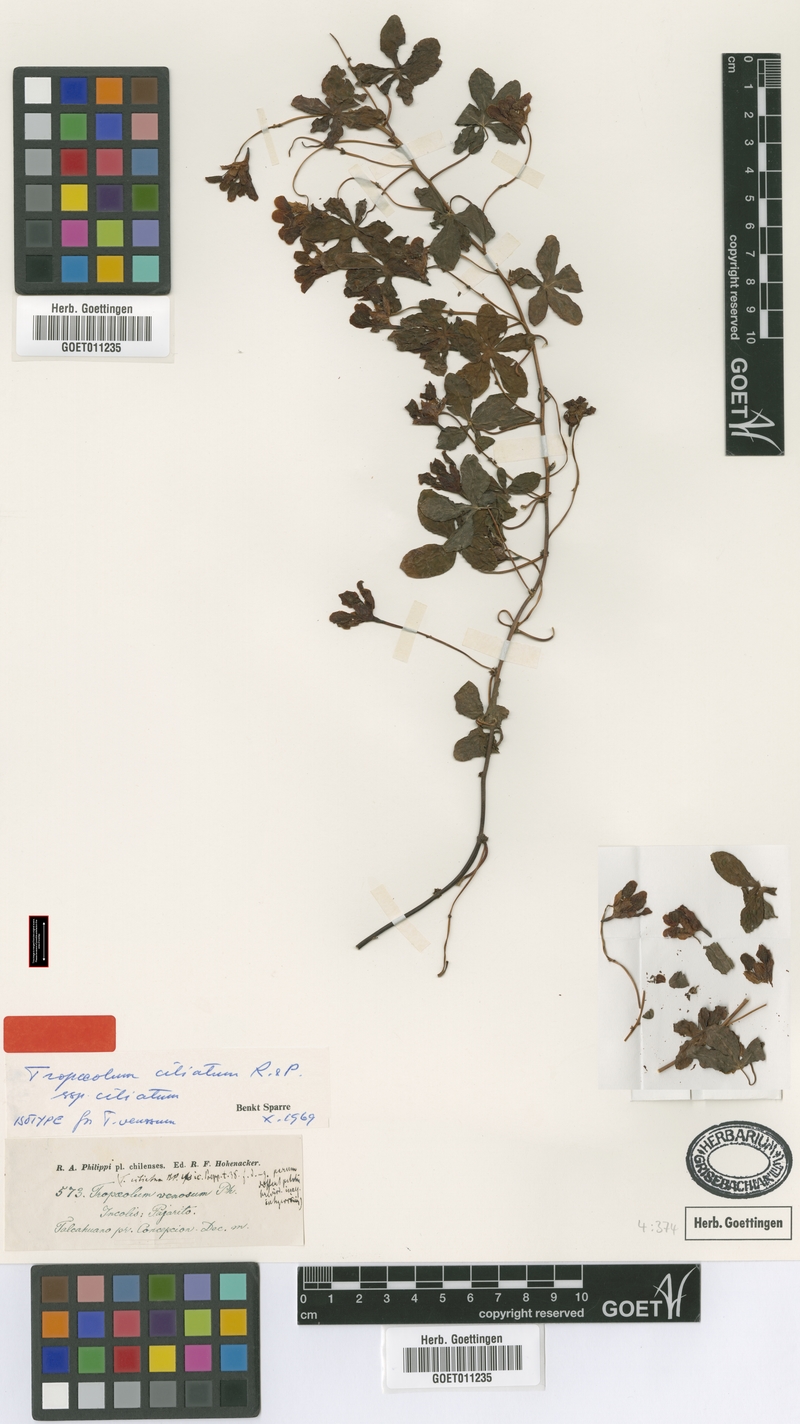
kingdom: Plantae
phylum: Tracheophyta
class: Magnoliopsida
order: Brassicales
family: Tropaeolaceae
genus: Tropaeolum
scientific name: Tropaeolum ciliatum
